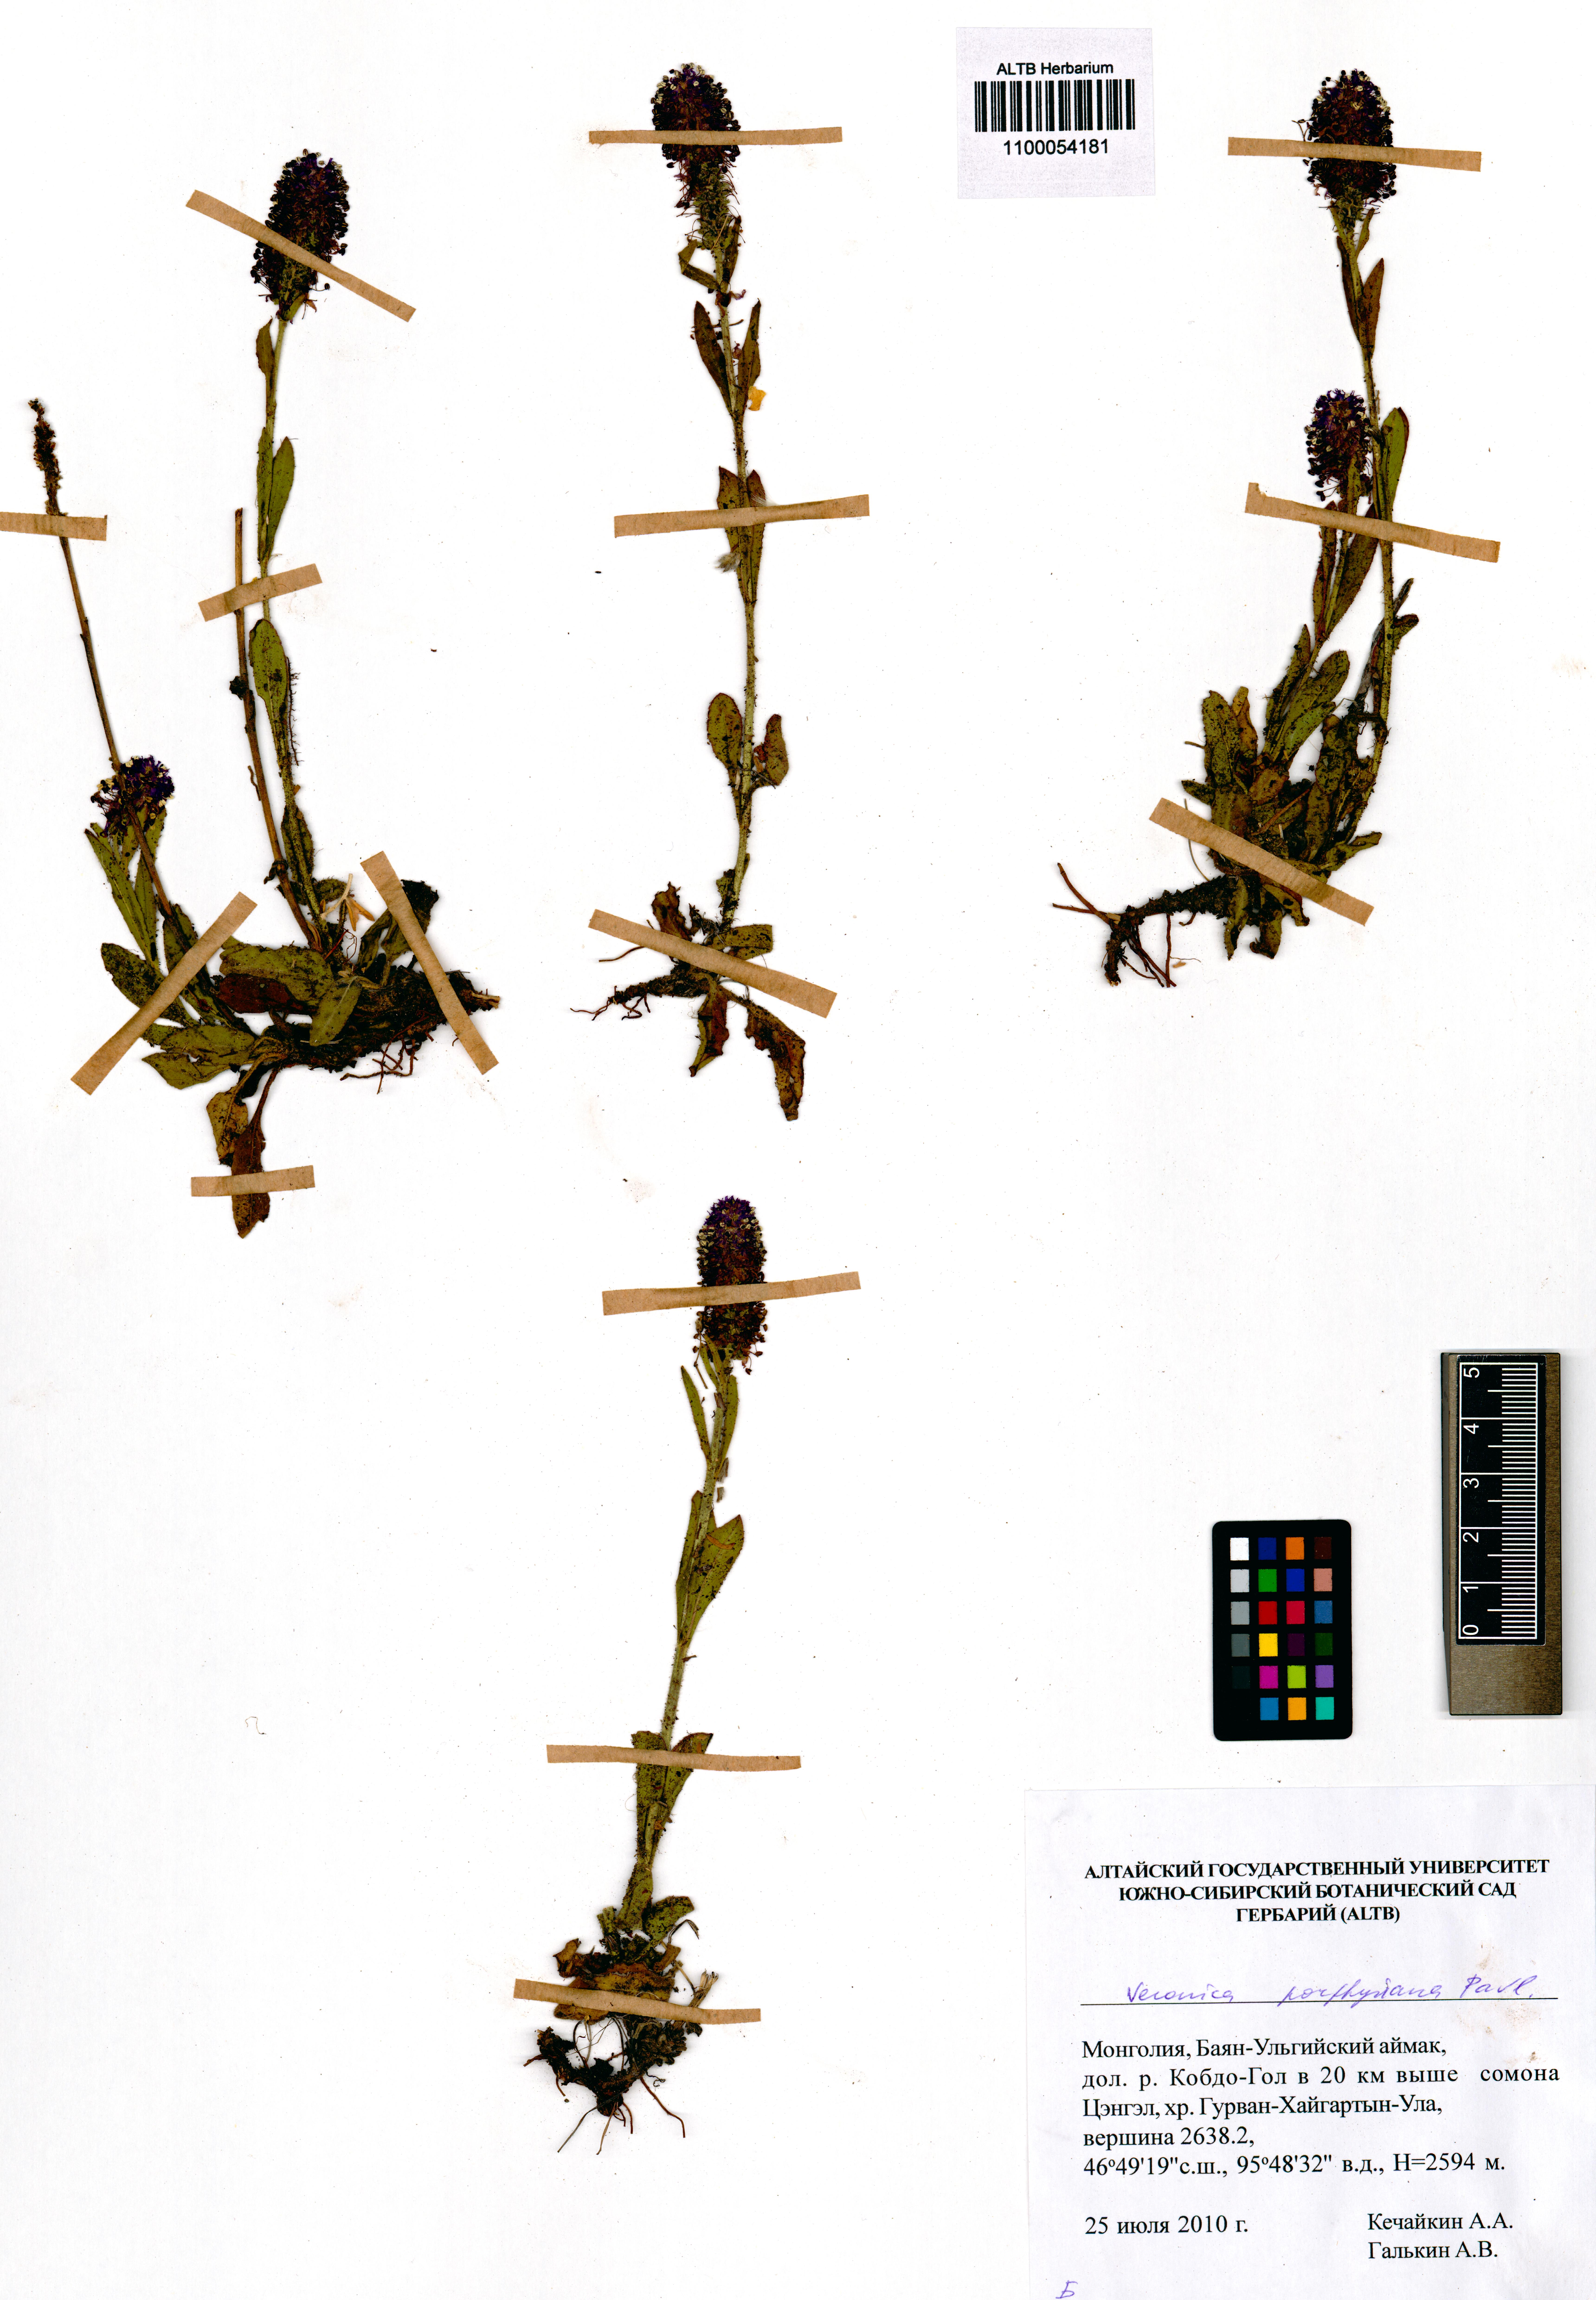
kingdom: Plantae
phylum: Tracheophyta
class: Magnoliopsida
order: Lamiales
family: Plantaginaceae
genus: Veronica
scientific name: Veronica porphyriana
